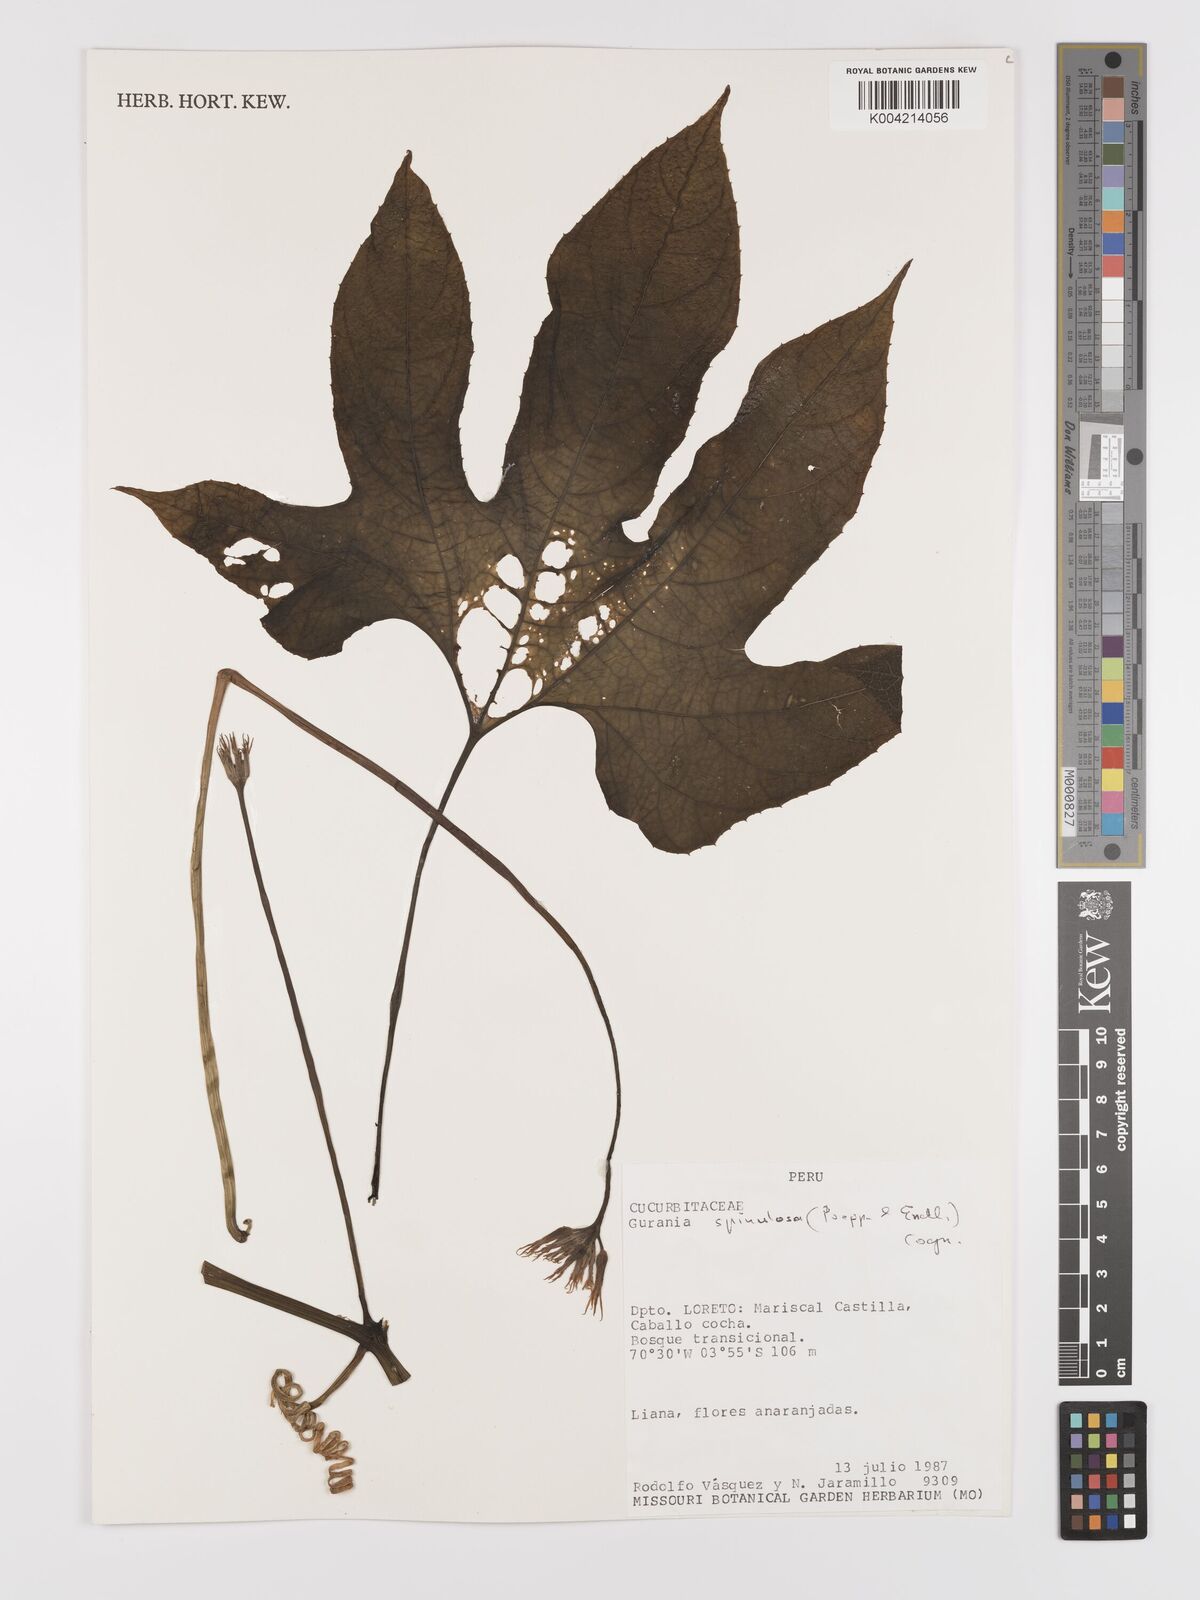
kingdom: Plantae
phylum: Tracheophyta
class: Magnoliopsida
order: Cucurbitales
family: Cucurbitaceae
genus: Gurania
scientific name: Gurania lobata
